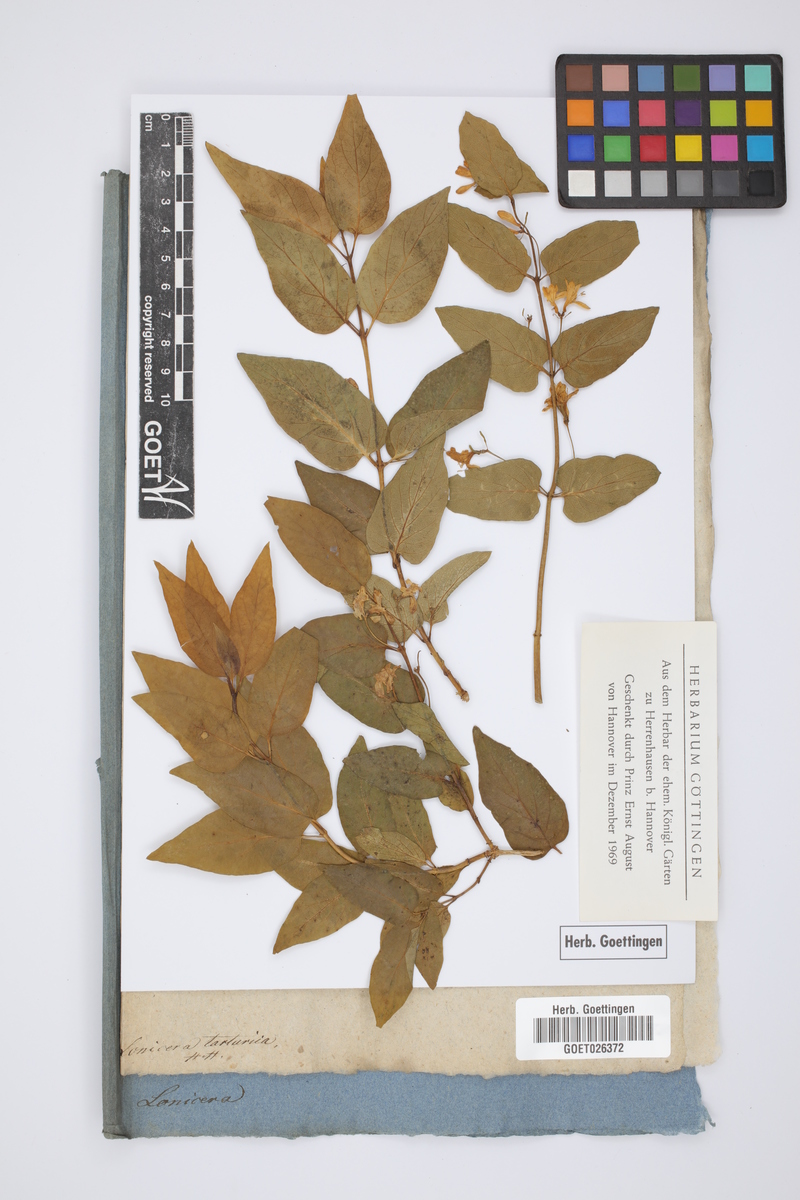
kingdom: Plantae
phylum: Tracheophyta
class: Magnoliopsida
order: Dipsacales
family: Caprifoliaceae
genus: Lonicera
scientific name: Lonicera tatarica
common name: Tatarian honeysuckle
